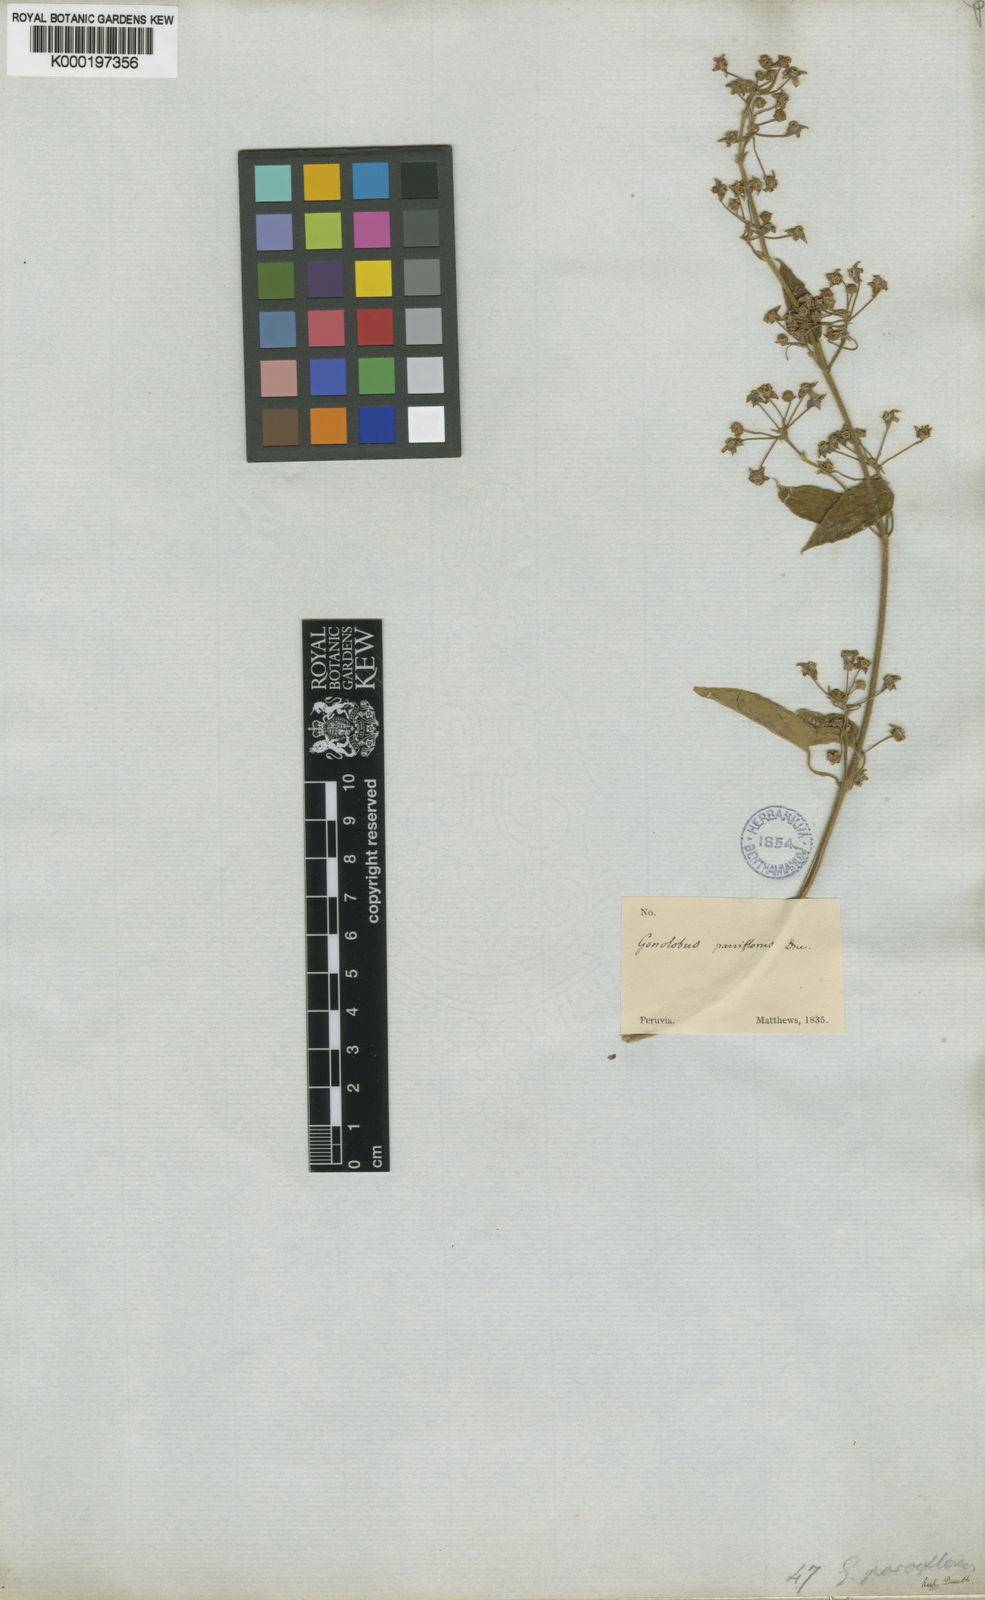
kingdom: Plantae
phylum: Tracheophyta
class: Magnoliopsida
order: Gentianales
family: Apocynaceae
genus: Gonolobus
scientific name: Gonolobus parviflorus
